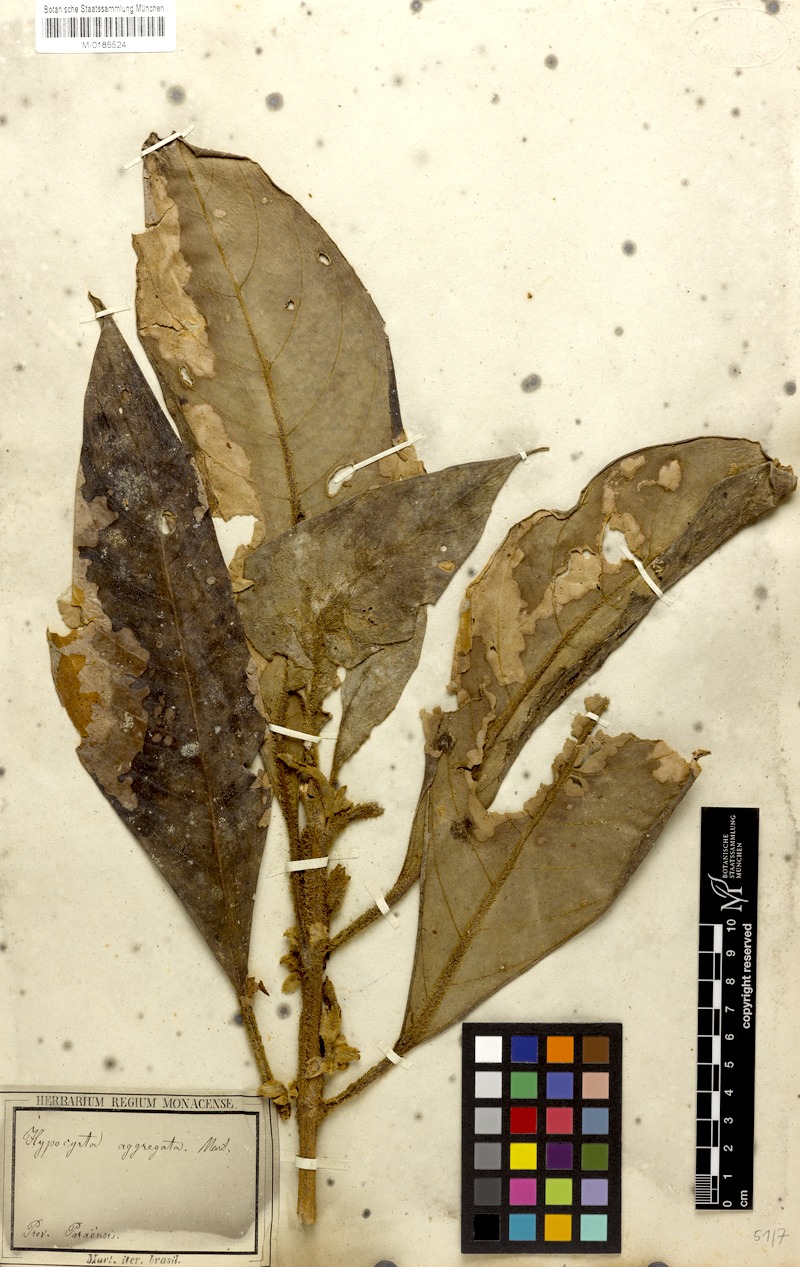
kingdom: Plantae
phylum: Tracheophyta
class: Magnoliopsida
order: Lamiales
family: Gesneriaceae
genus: Besleria
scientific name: Besleria aggregata
